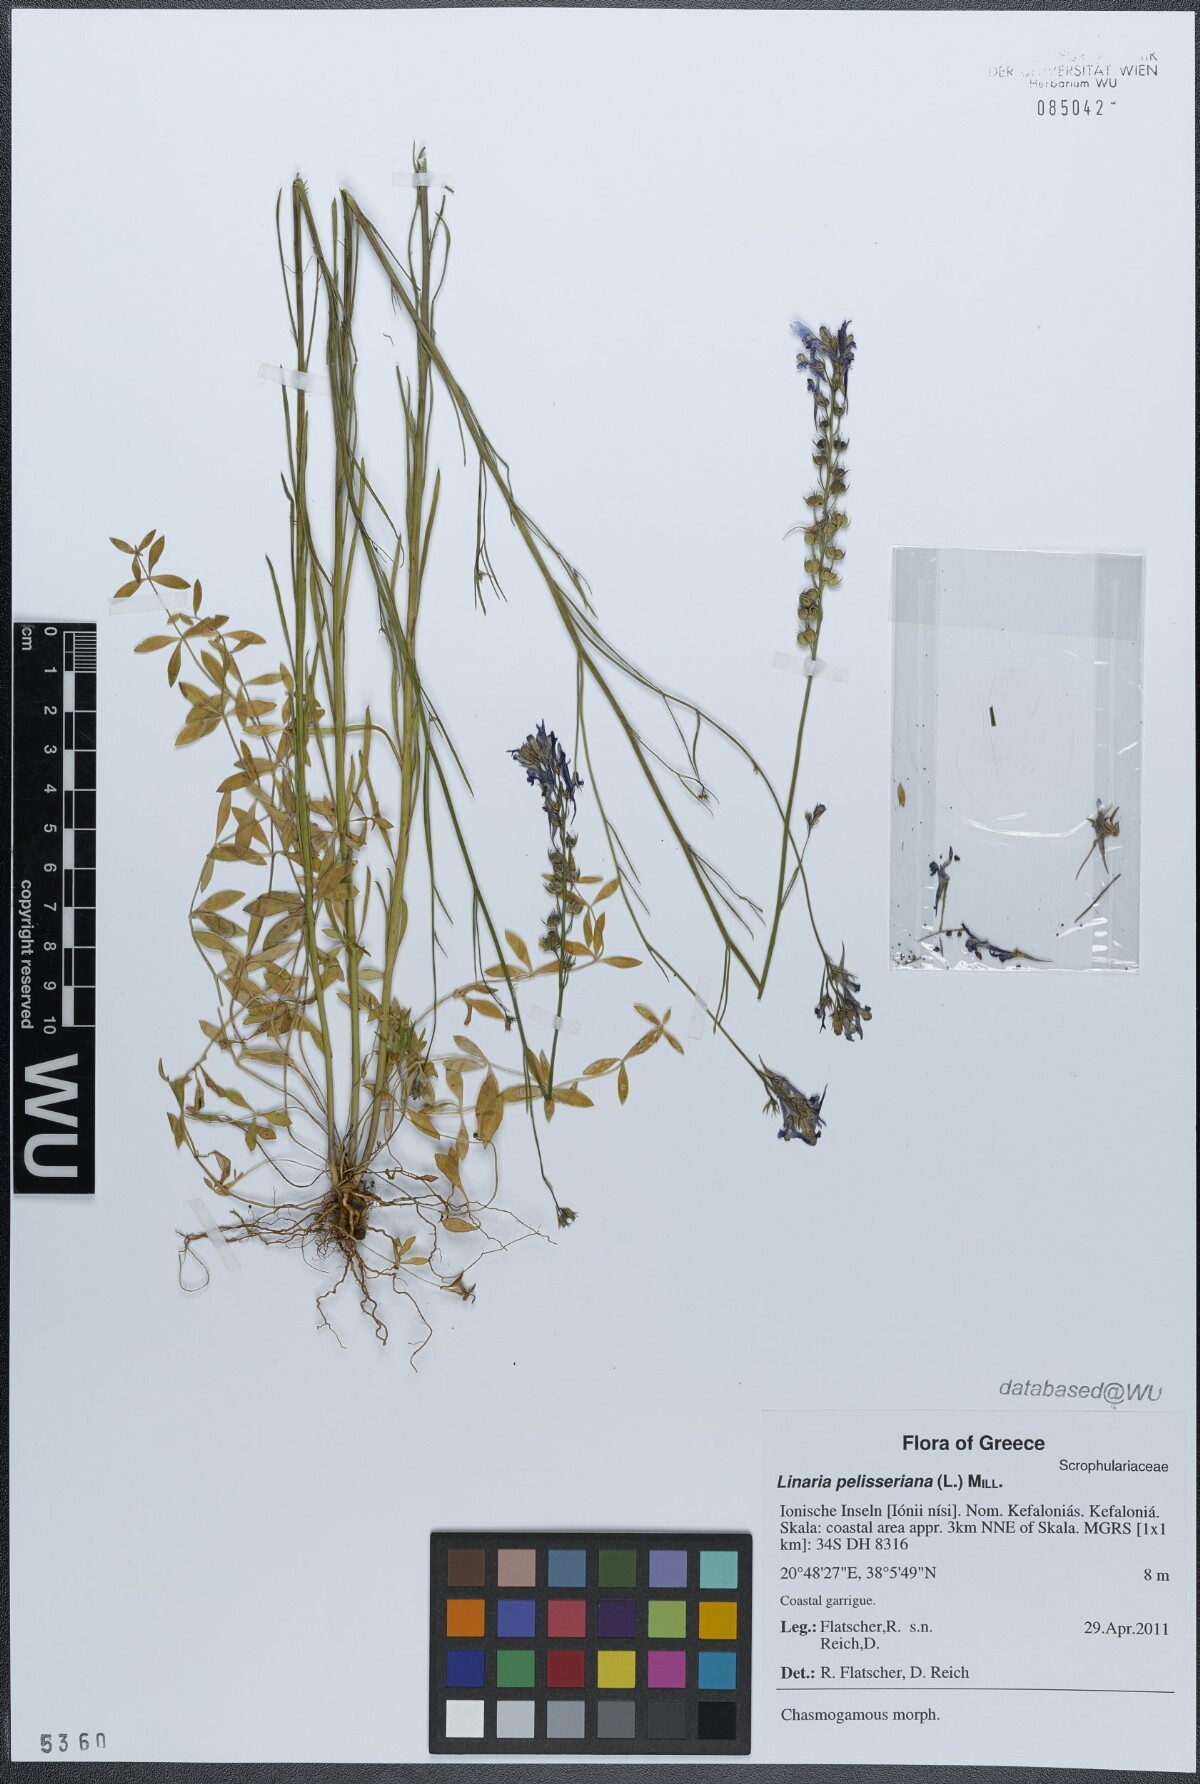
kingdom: Plantae
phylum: Tracheophyta
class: Magnoliopsida
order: Lamiales
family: Plantaginaceae
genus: Linaria
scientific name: Linaria pelisseriana
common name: Jersey toadflax
